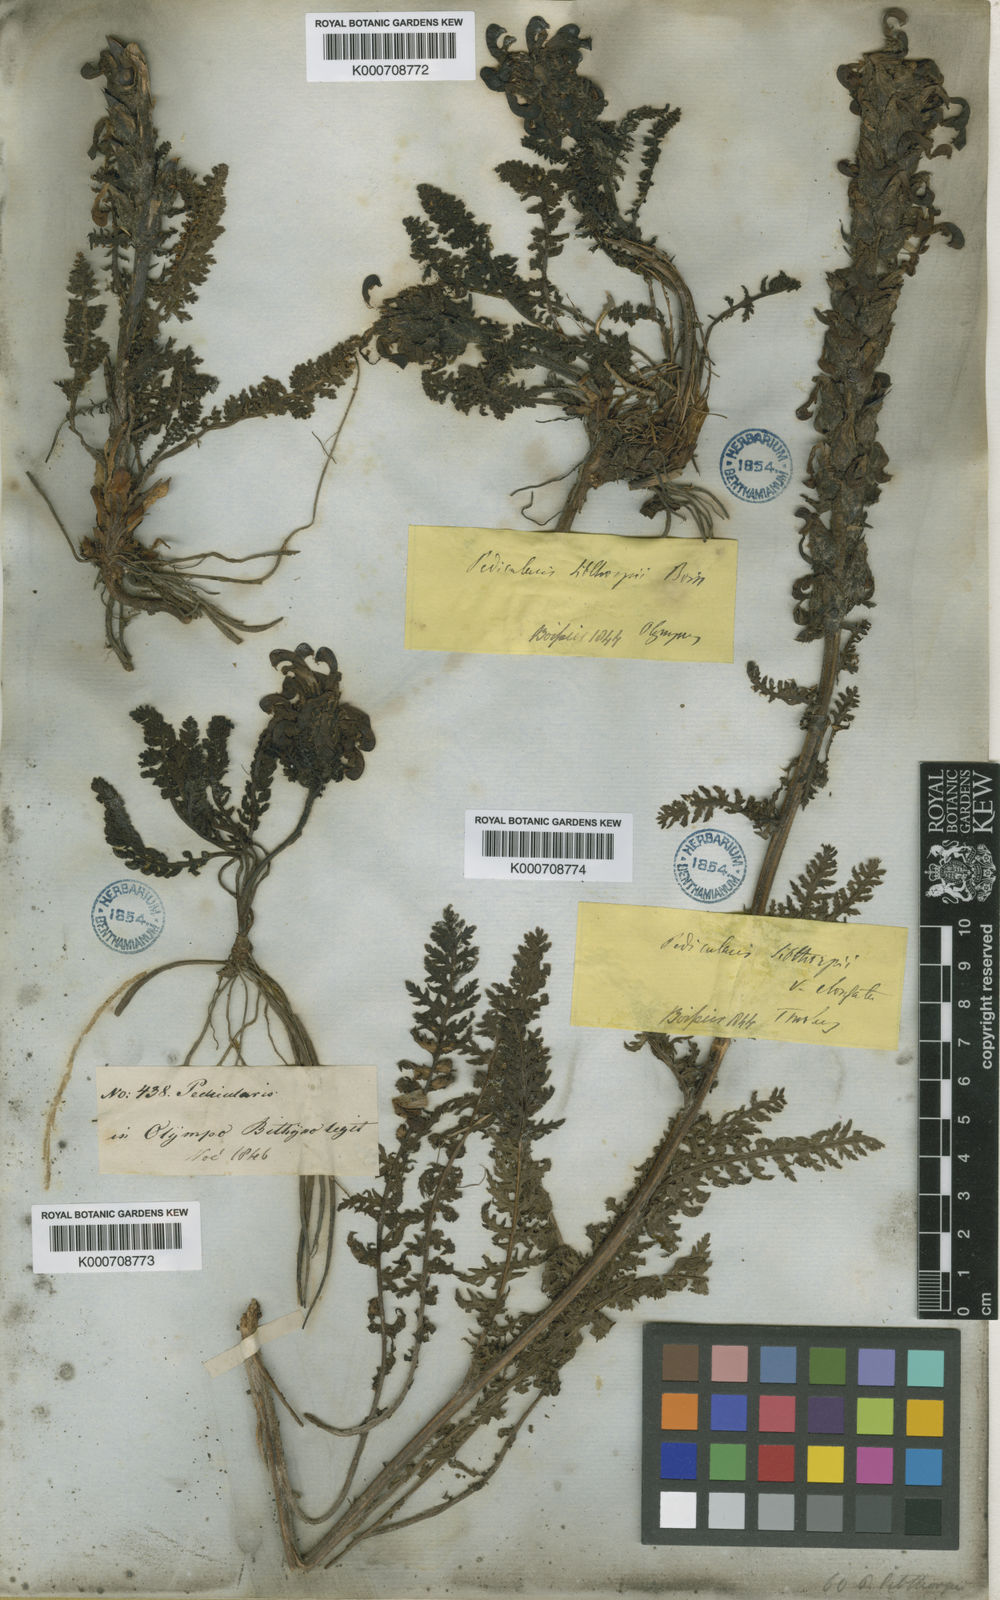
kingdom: Plantae
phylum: Tracheophyta
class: Magnoliopsida
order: Lamiales
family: Orobanchaceae
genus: Pedicularis
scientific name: Pedicularis sibthorpii
